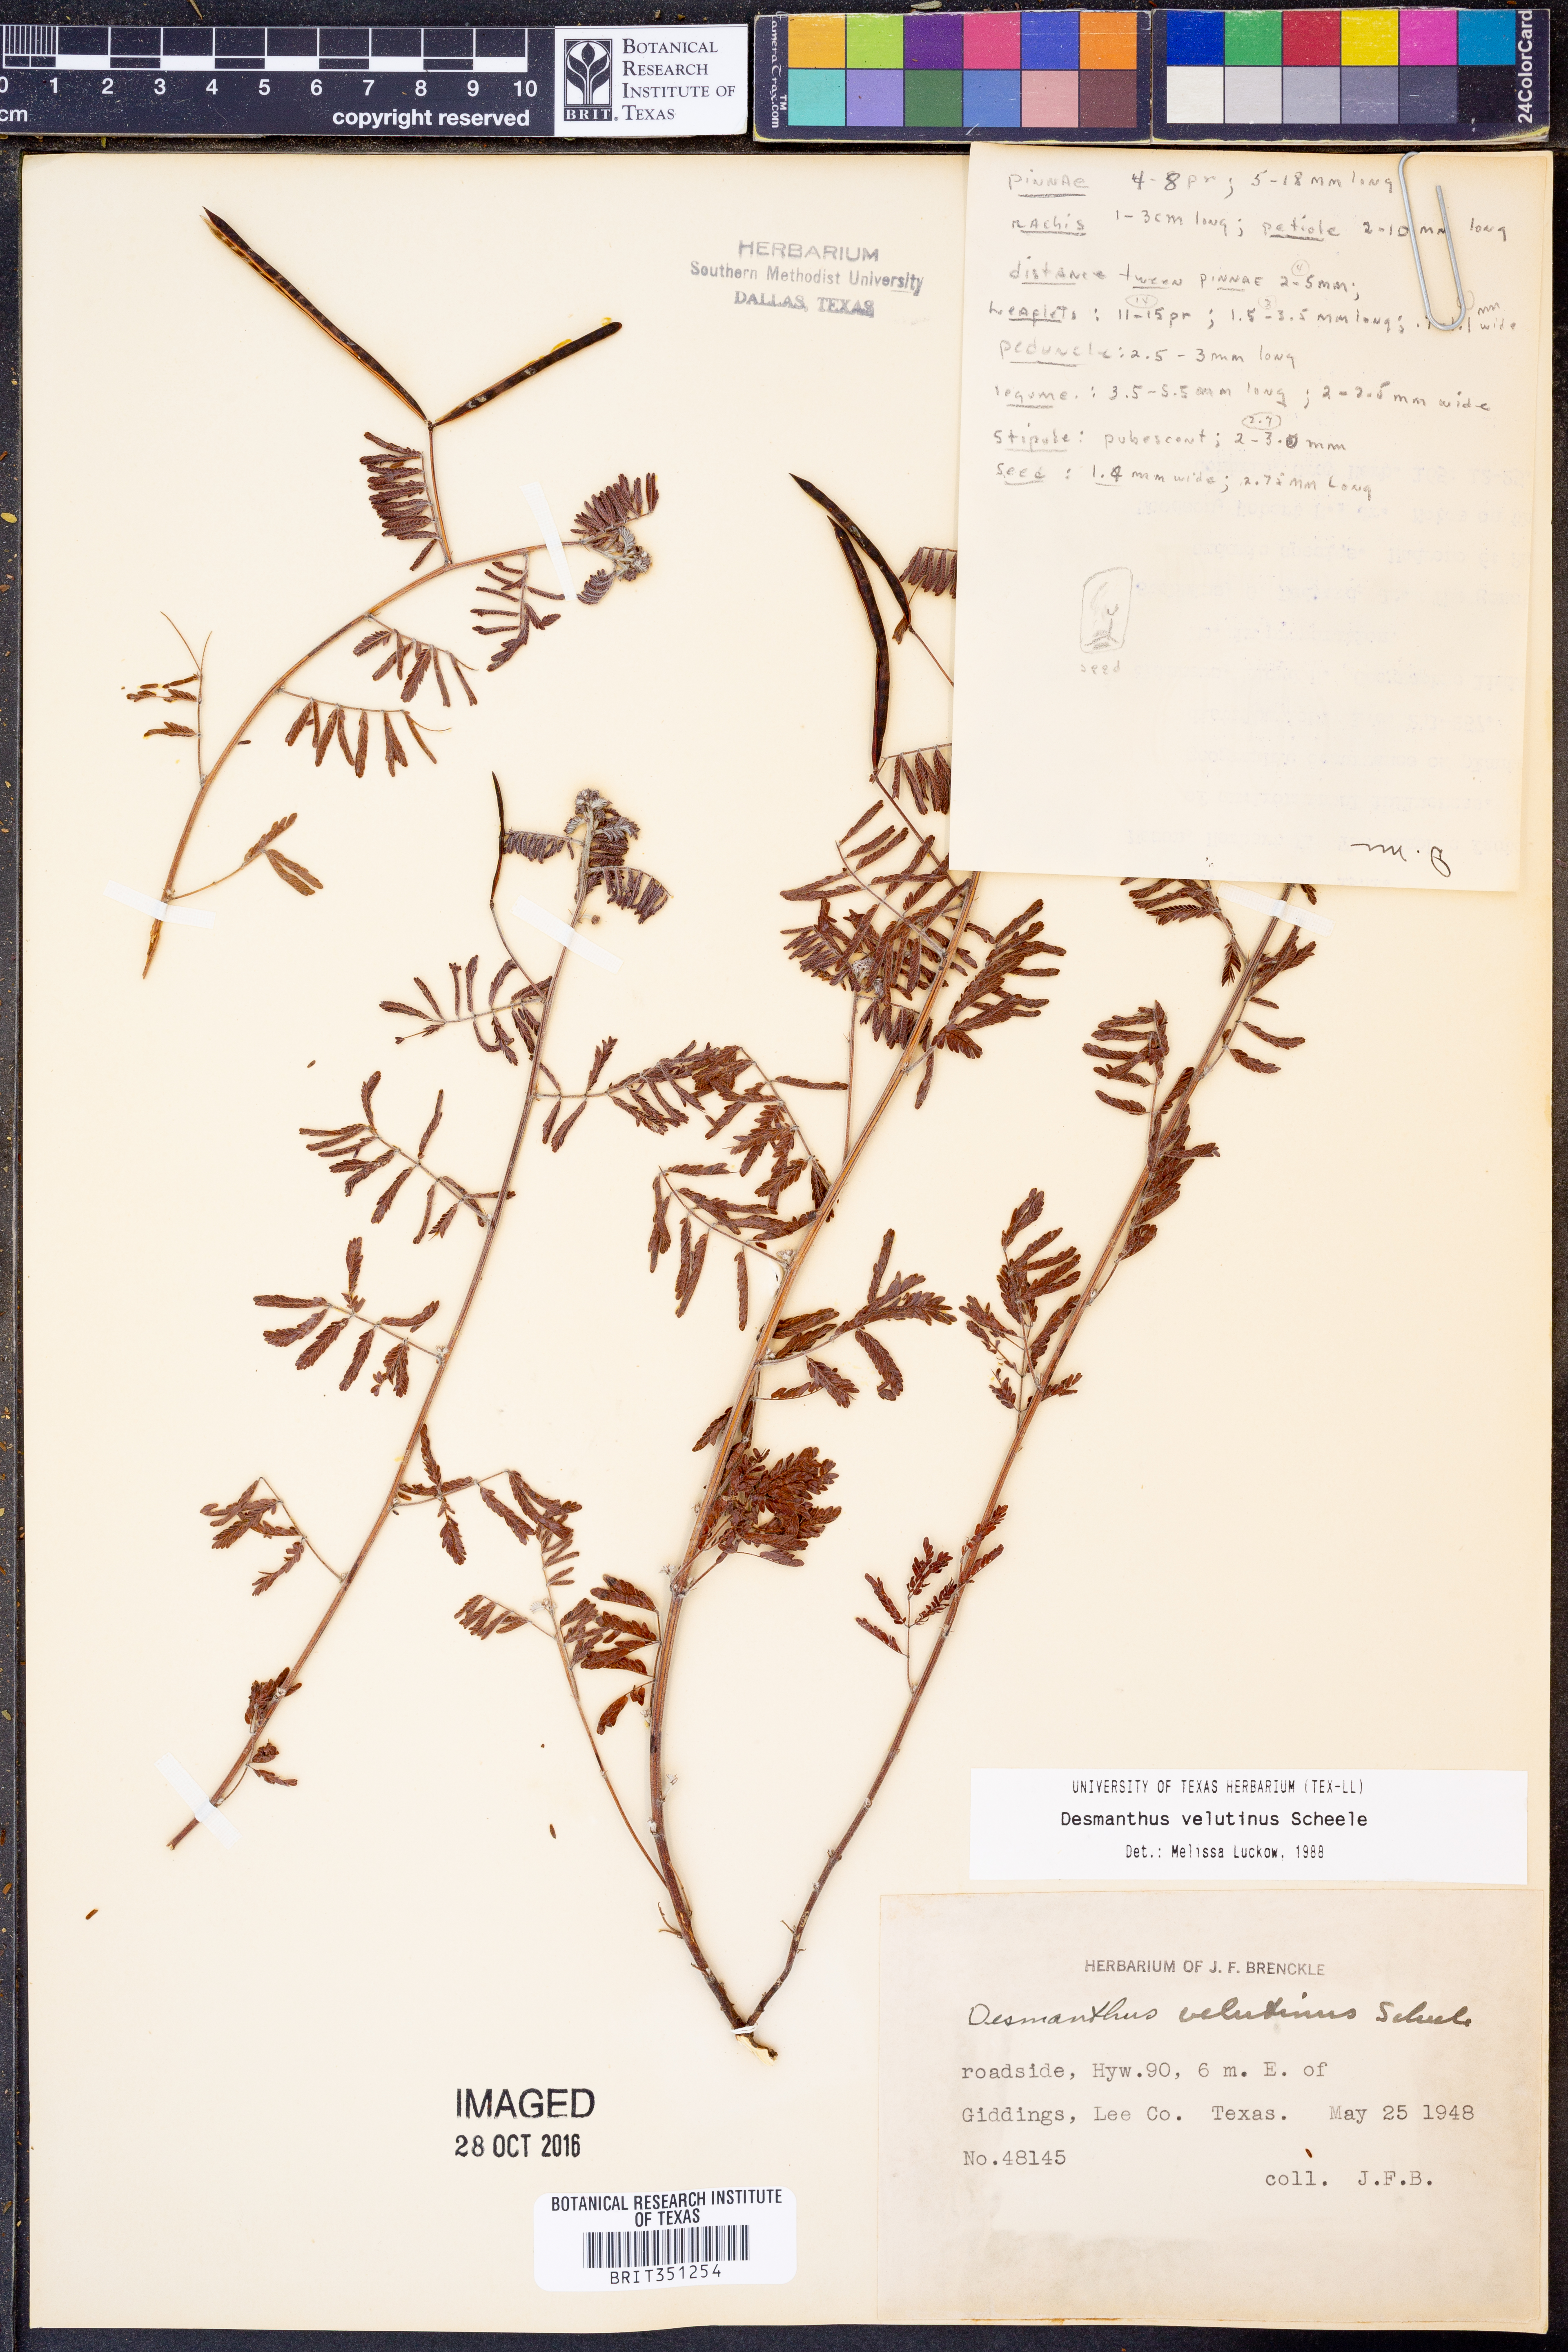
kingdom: Plantae
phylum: Tracheophyta
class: Magnoliopsida
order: Fabales
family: Fabaceae
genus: Desmanthus
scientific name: Desmanthus velutinus
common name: Velvet bundle-flower
